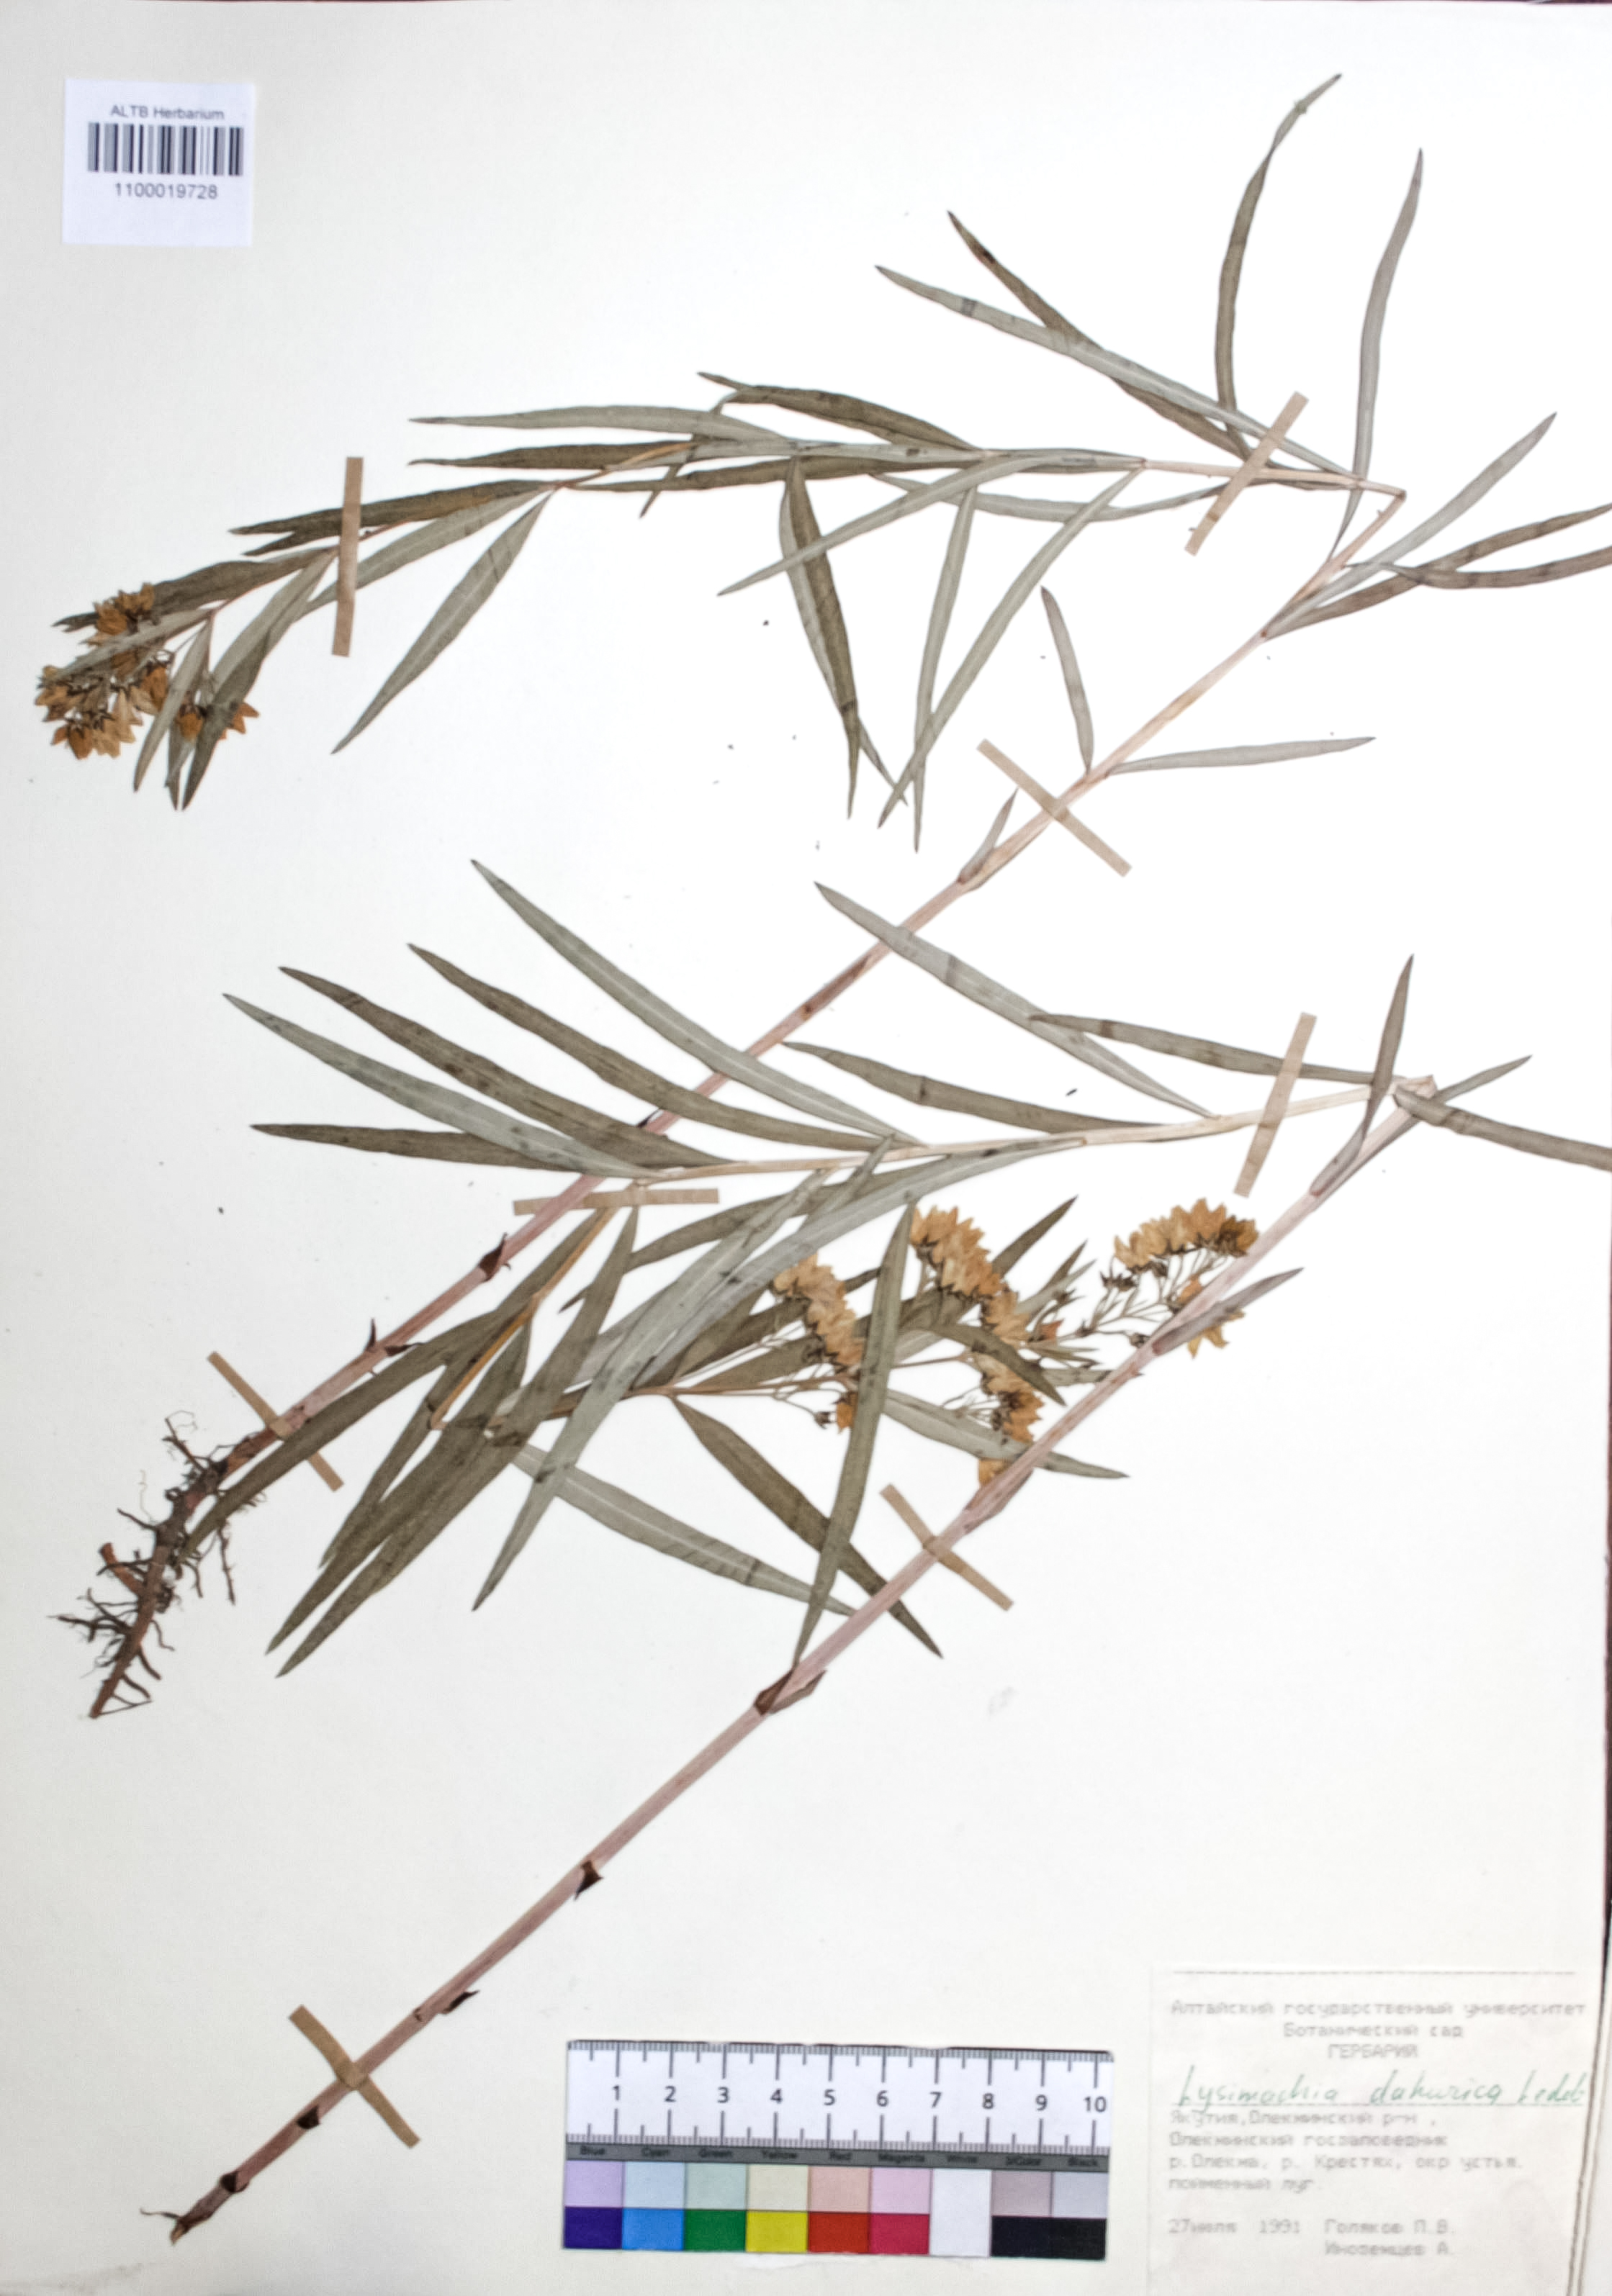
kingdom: Plantae
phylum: Tracheophyta
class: Magnoliopsida
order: Ericales
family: Primulaceae
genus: Lysimachia
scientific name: Lysimachia davurica
